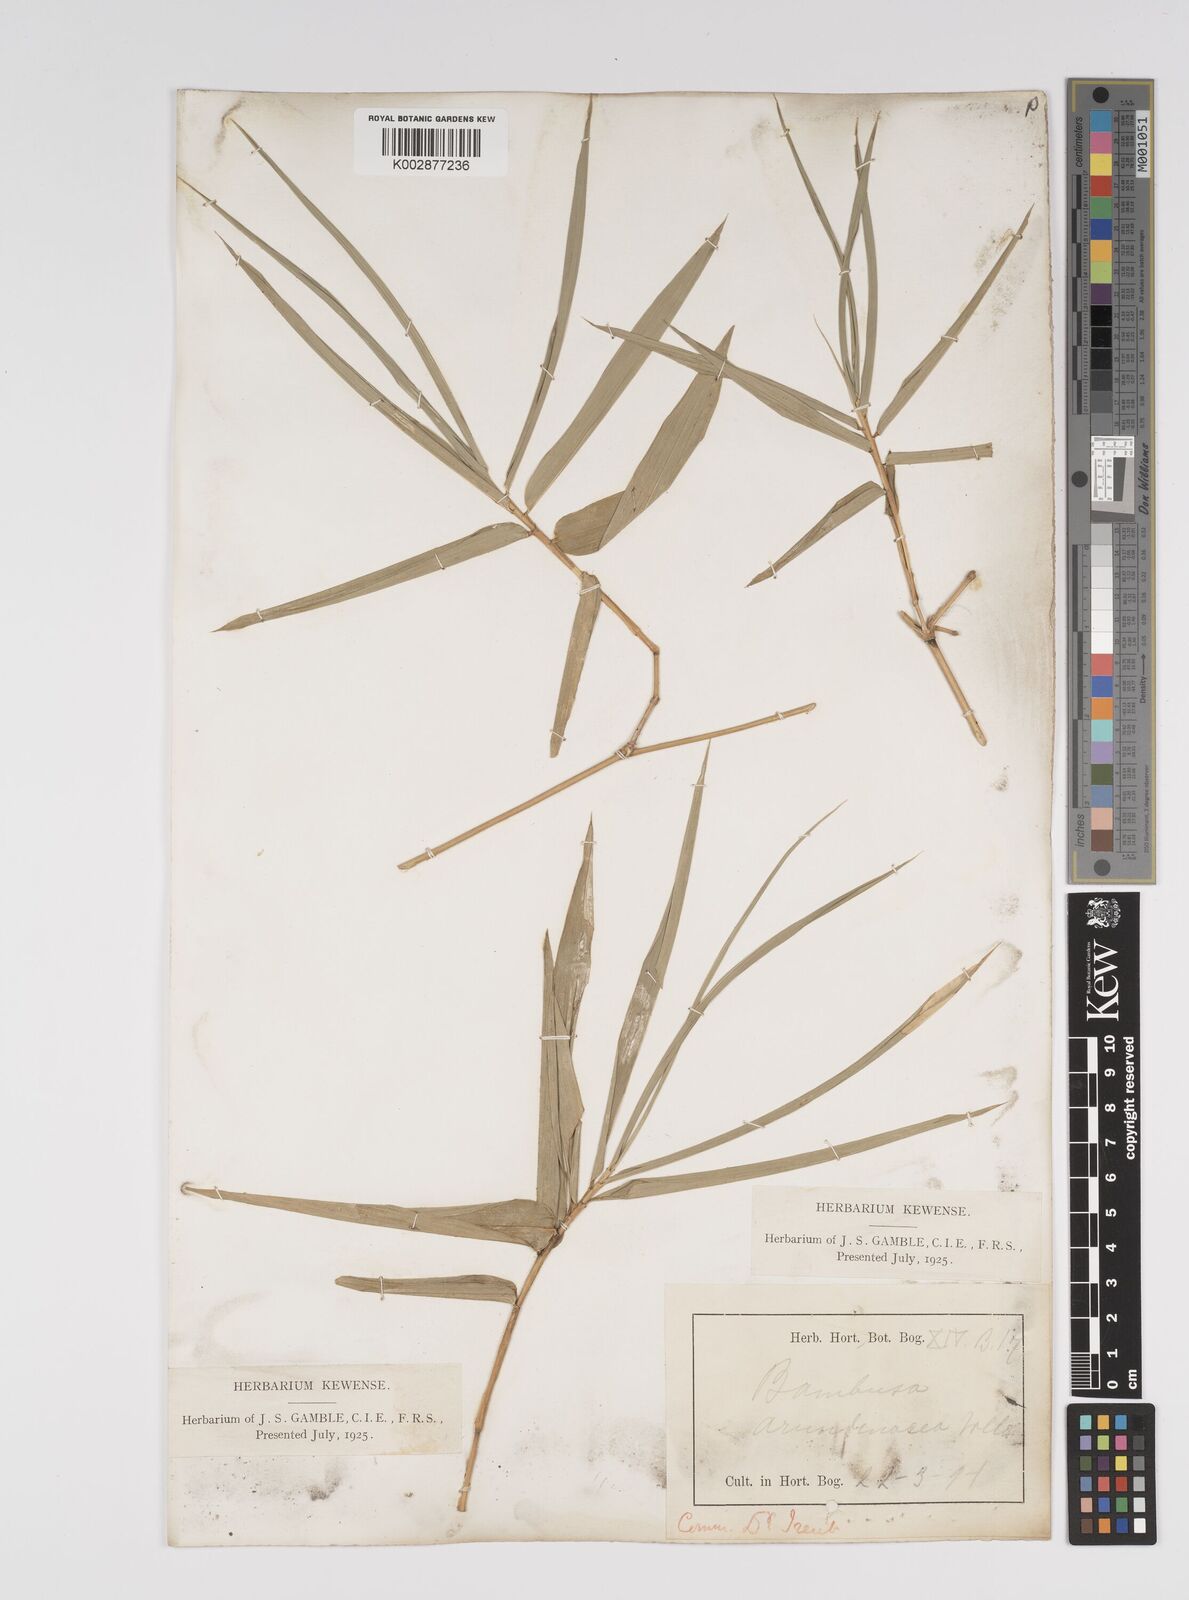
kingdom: Plantae
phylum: Tracheophyta
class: Liliopsida
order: Poales
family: Poaceae
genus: Bambusa
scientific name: Bambusa bambos
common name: Indian thorny bamboo
